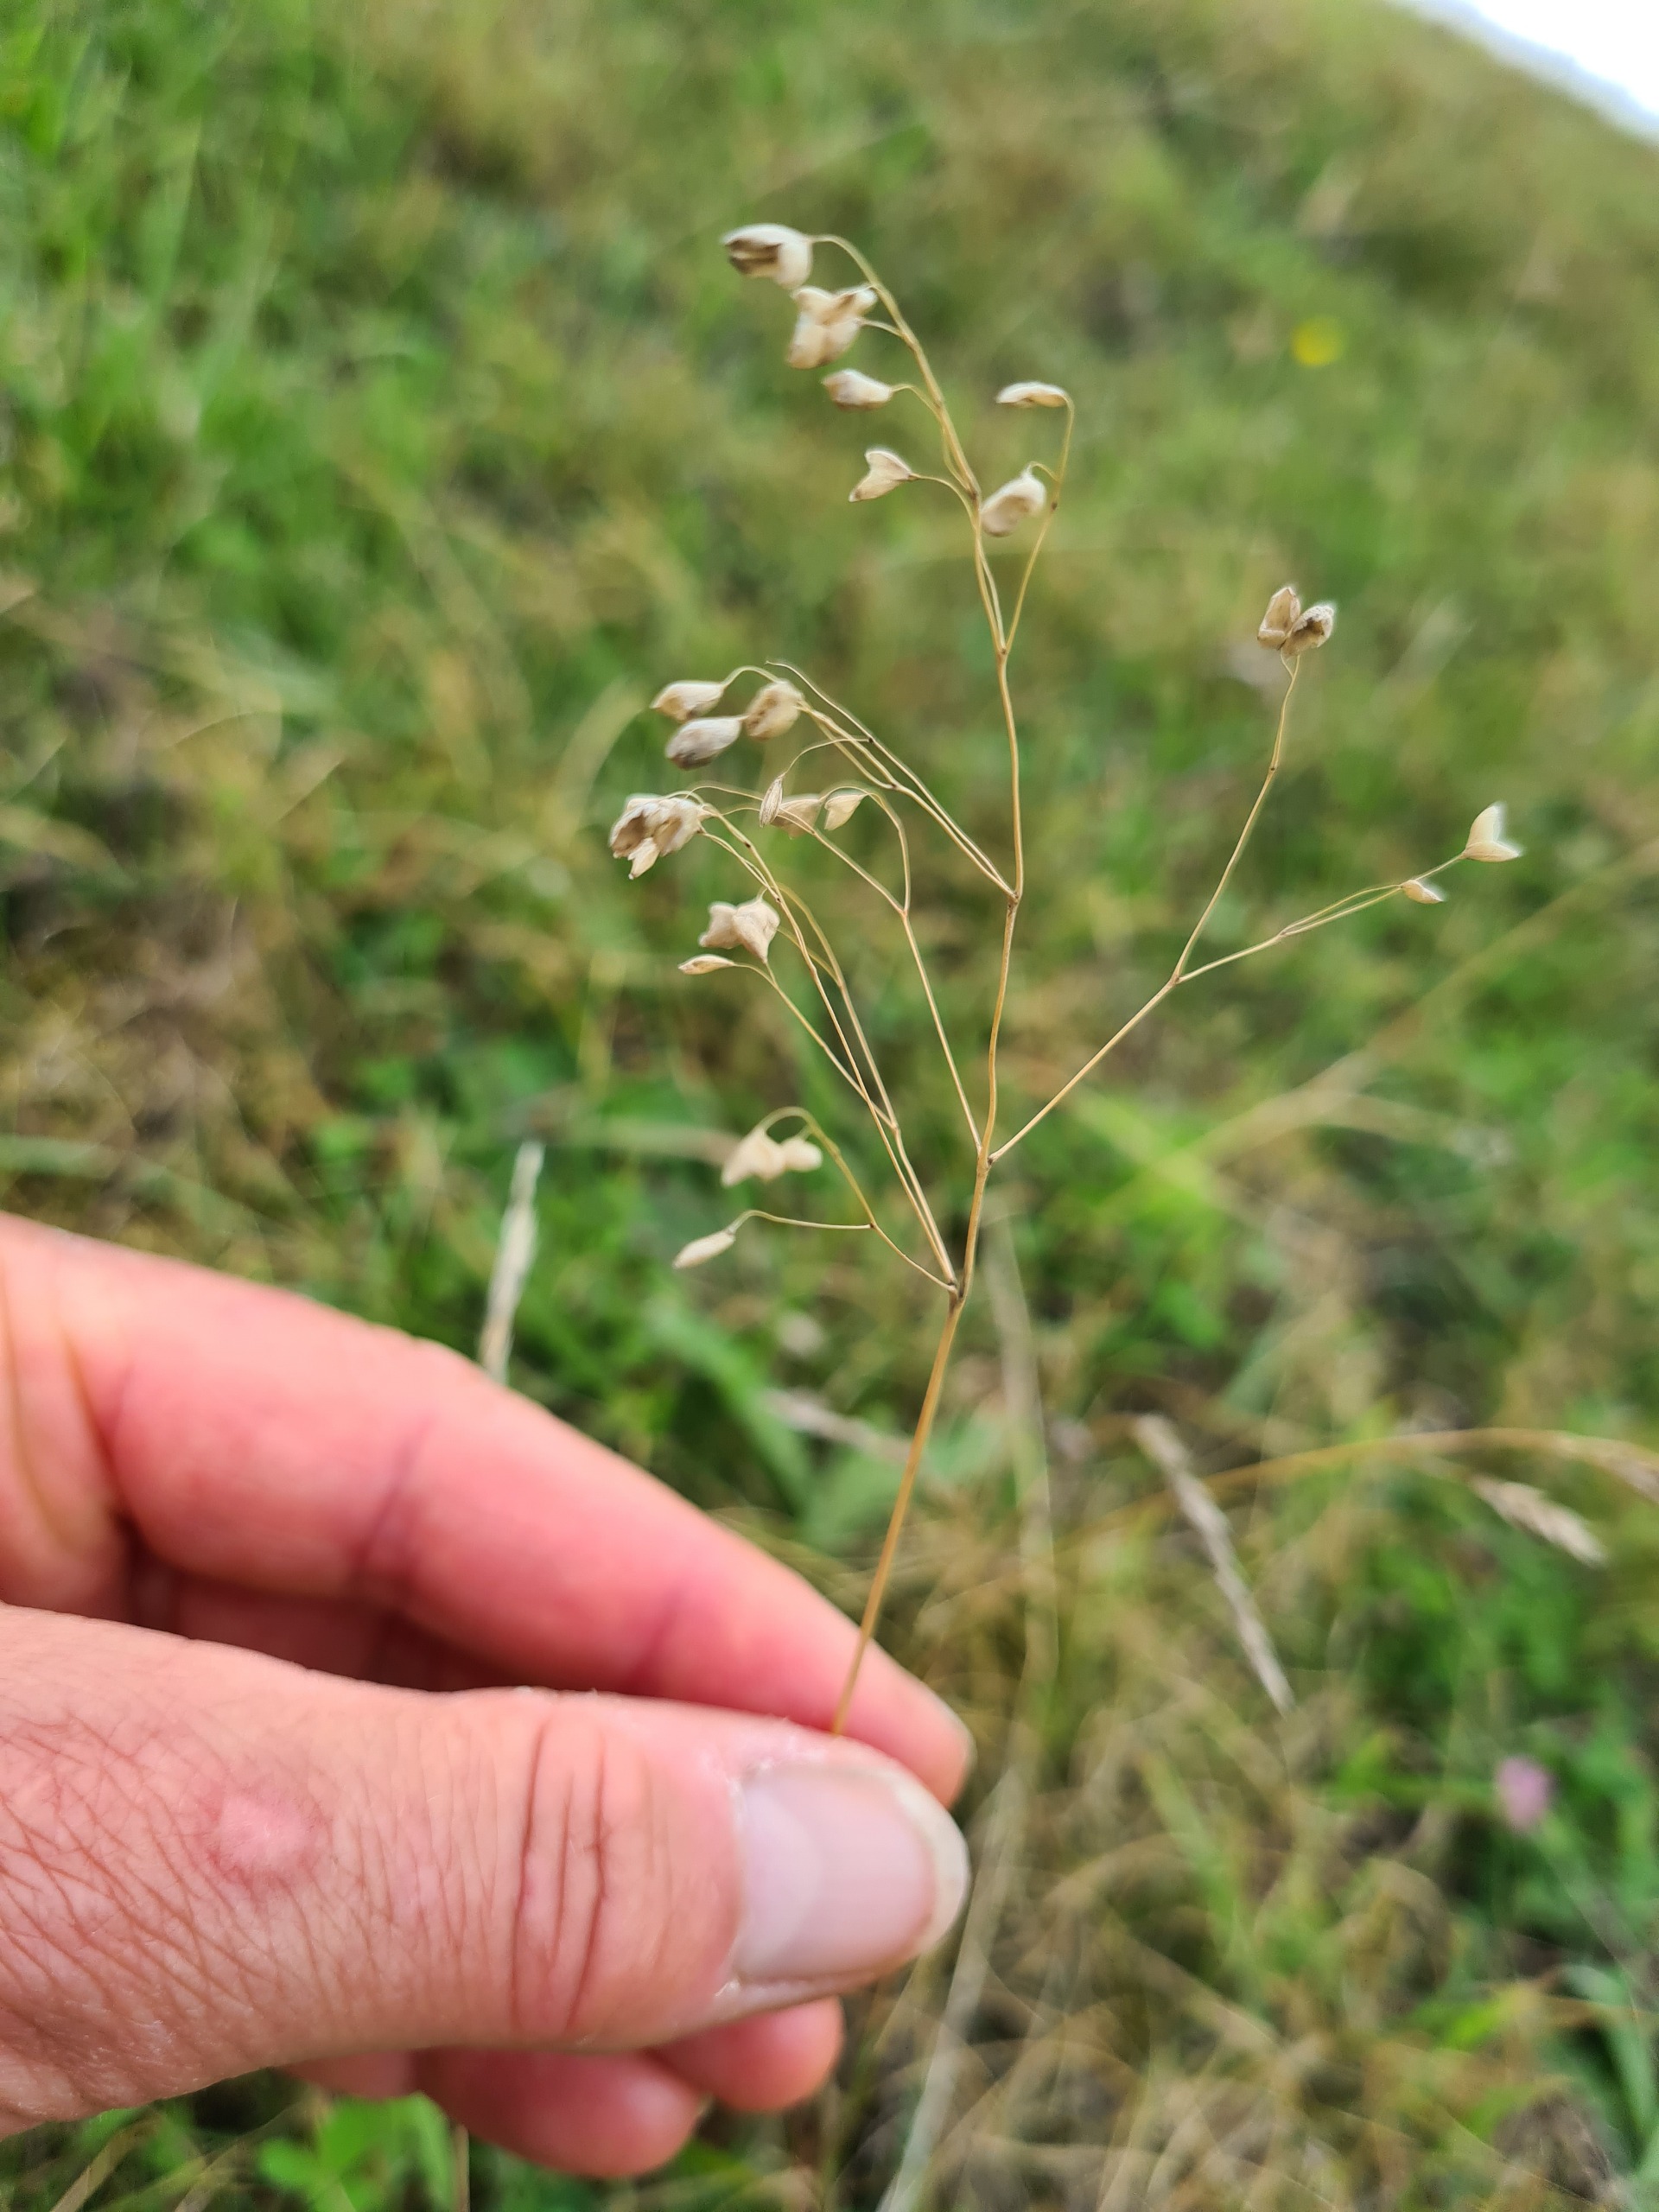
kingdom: Plantae
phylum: Tracheophyta
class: Liliopsida
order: Poales
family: Poaceae
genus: Briza
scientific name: Briza media
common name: Hjertegræs
